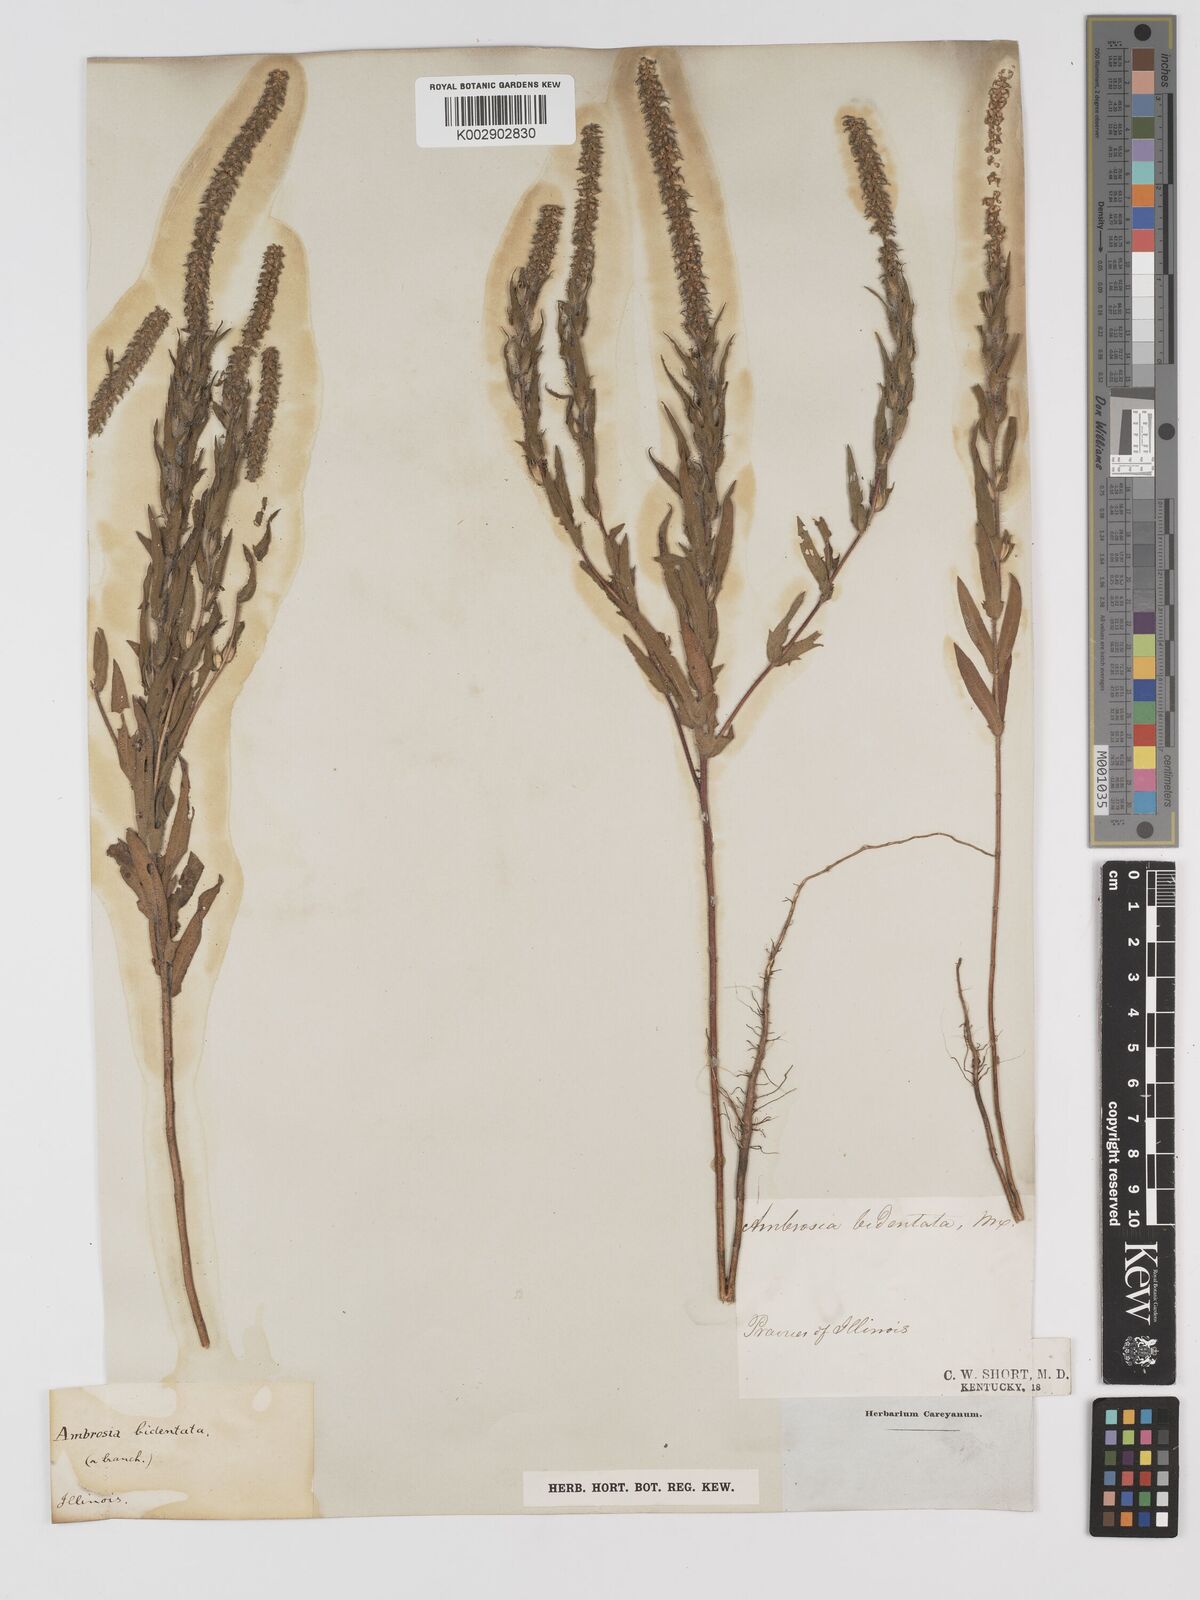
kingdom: Plantae
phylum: Tracheophyta
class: Magnoliopsida
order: Asterales
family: Asteraceae
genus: Ambrosia
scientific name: Ambrosia bidentata
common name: Southern ragweed
